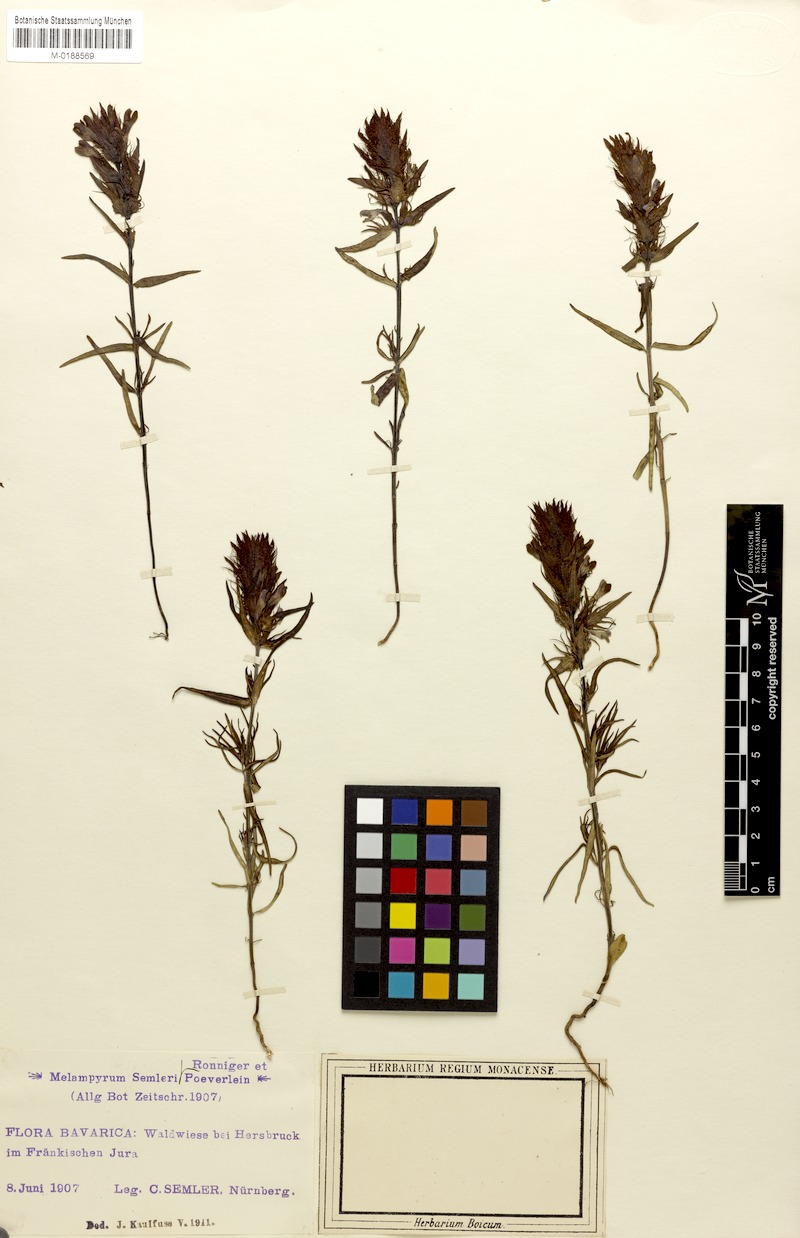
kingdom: Plantae
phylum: Tracheophyta
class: Magnoliopsida
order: Lamiales
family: Orobanchaceae
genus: Melampyrum
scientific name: Melampyrum arvense
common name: Field cow-wheat
